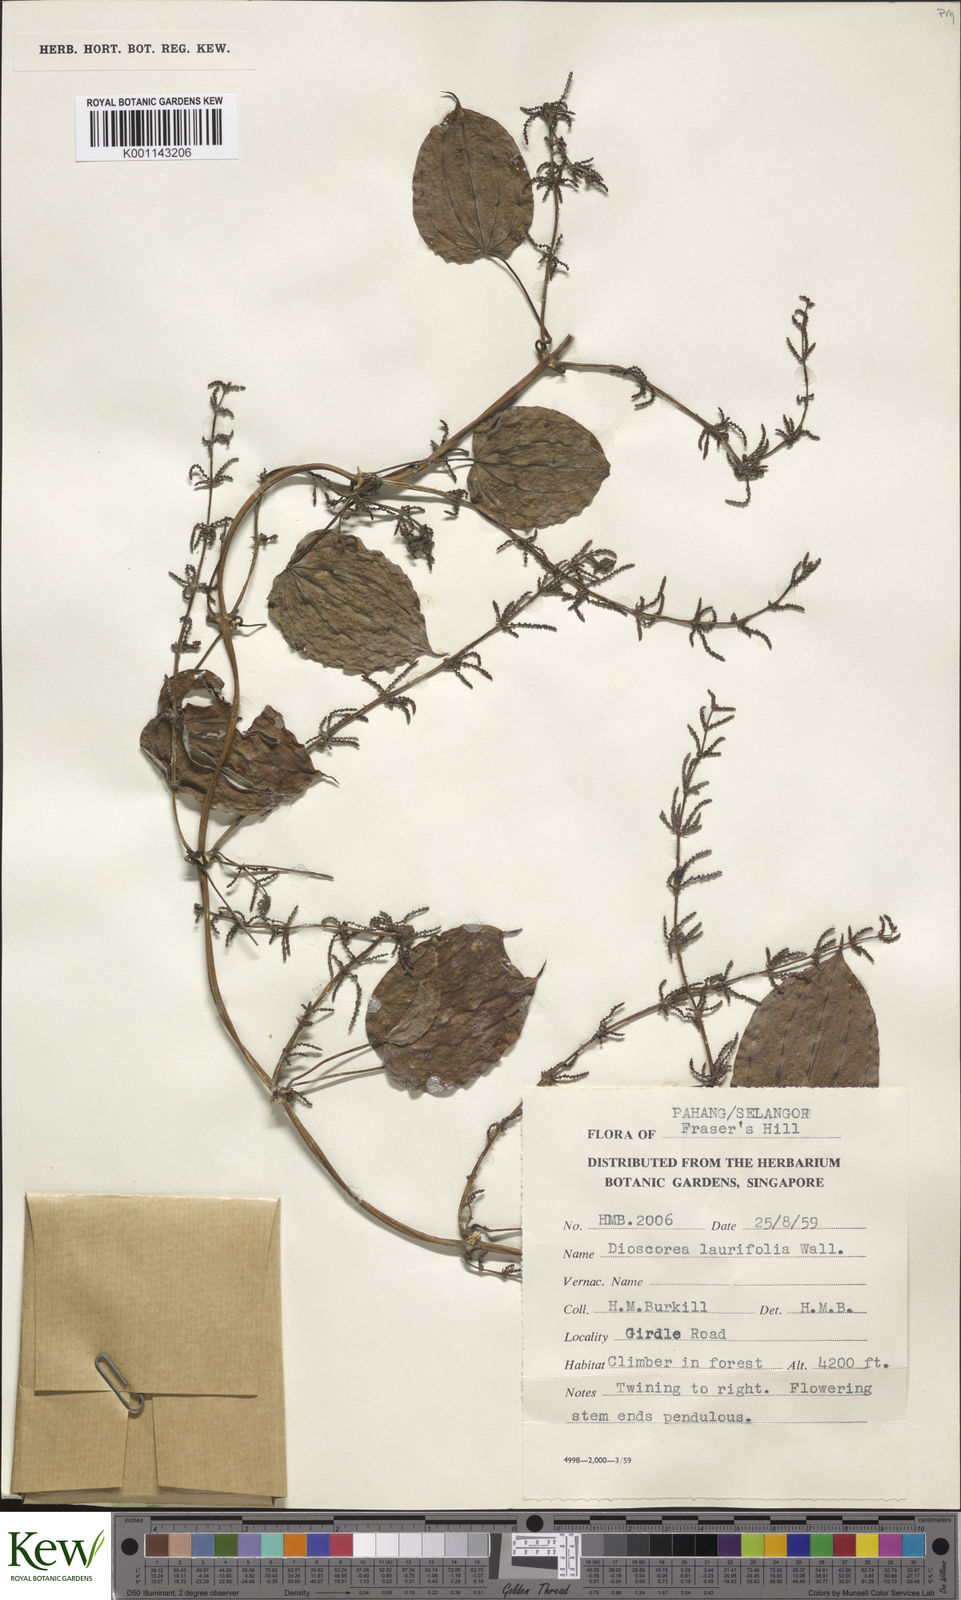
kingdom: Plantae
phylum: Tracheophyta
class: Liliopsida
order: Dioscoreales
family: Dioscoreaceae
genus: Dioscorea
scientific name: Dioscorea laurifolia
